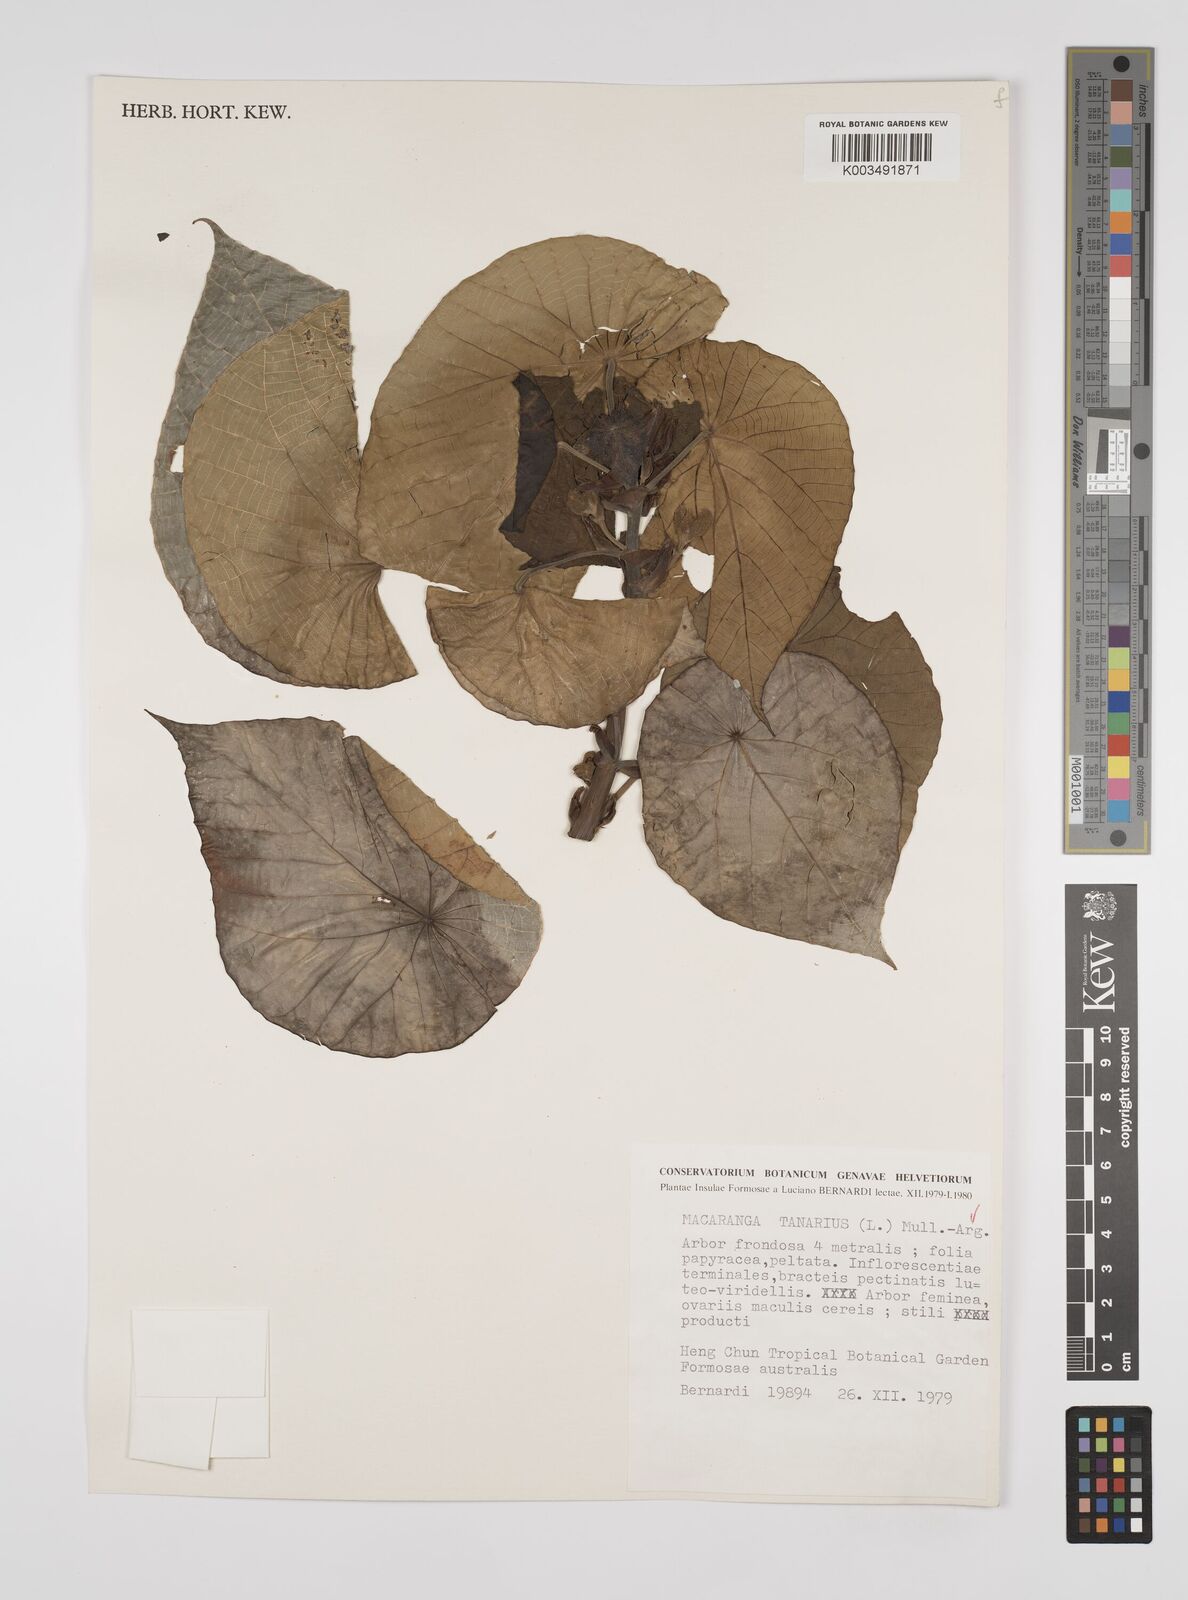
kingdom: Plantae
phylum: Tracheophyta
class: Magnoliopsida
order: Malpighiales
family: Euphorbiaceae
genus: Macaranga
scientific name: Macaranga tanarius
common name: Parasol leaf tree
